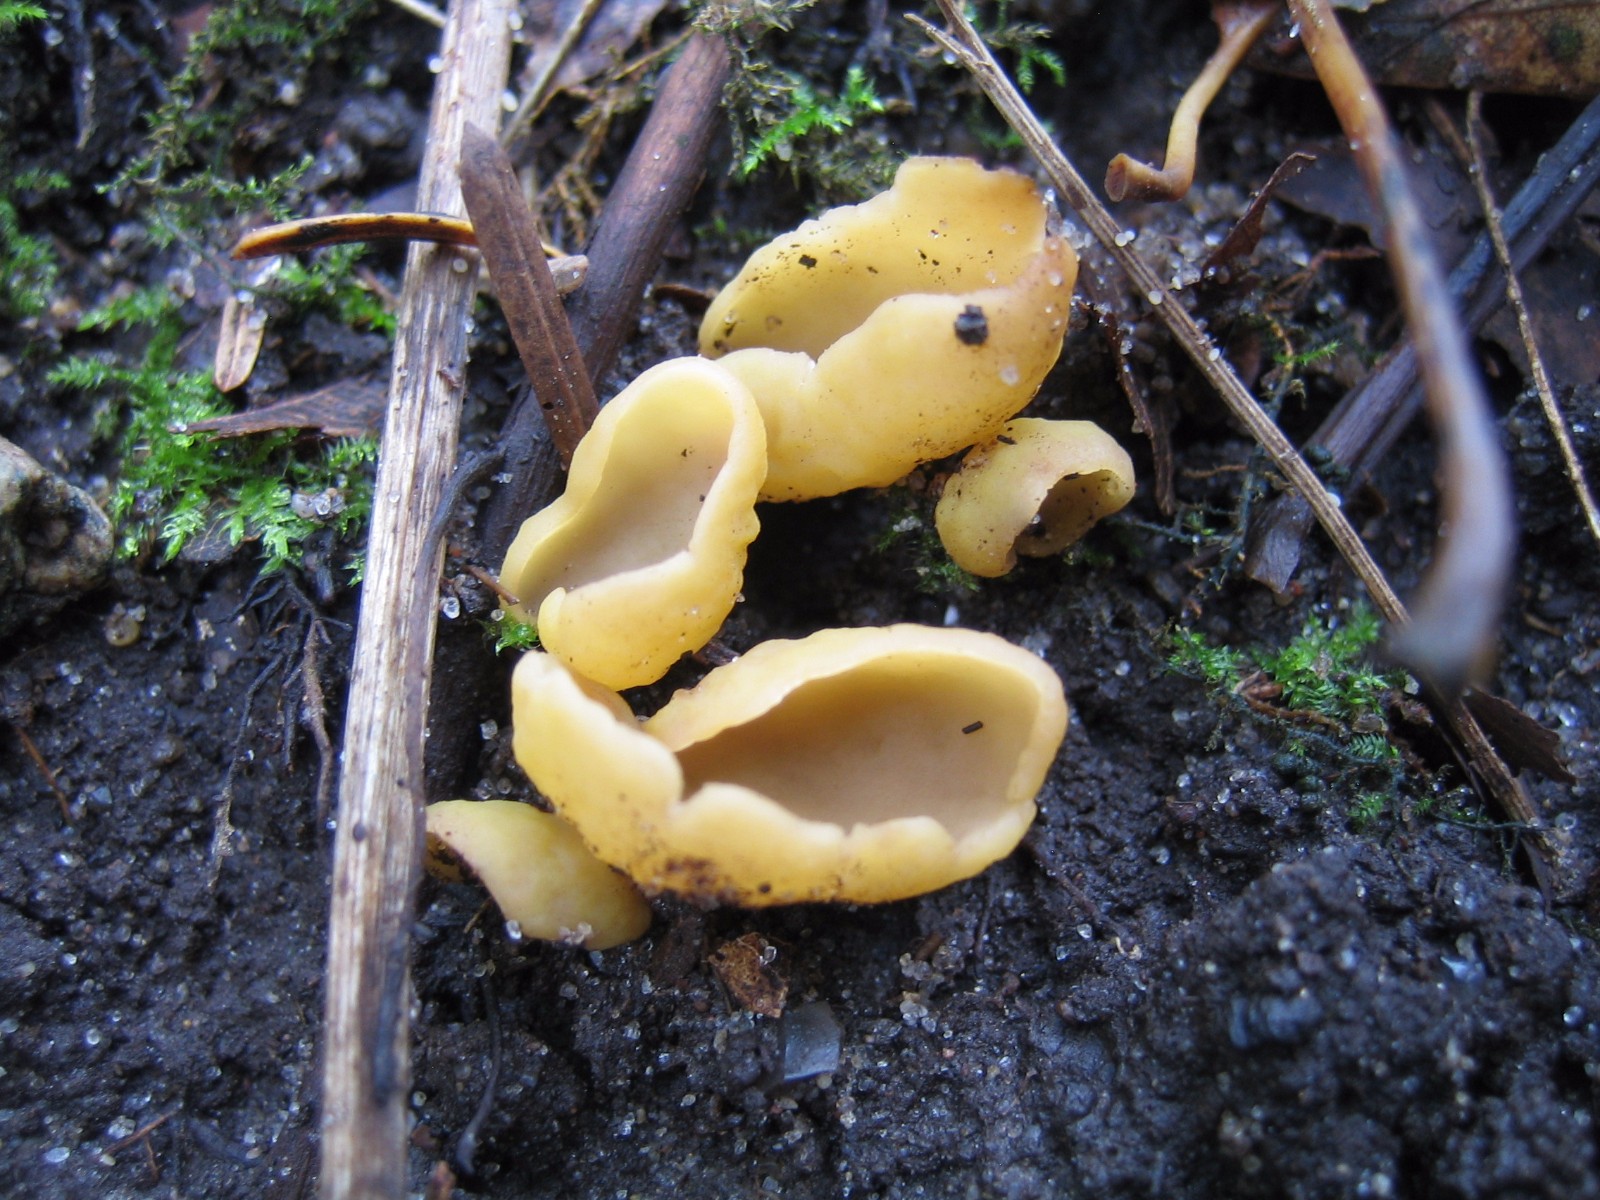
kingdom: Fungi
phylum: Ascomycota
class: Pezizomycetes
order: Pezizales
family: Otideaceae
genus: Otidea
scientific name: Otidea
